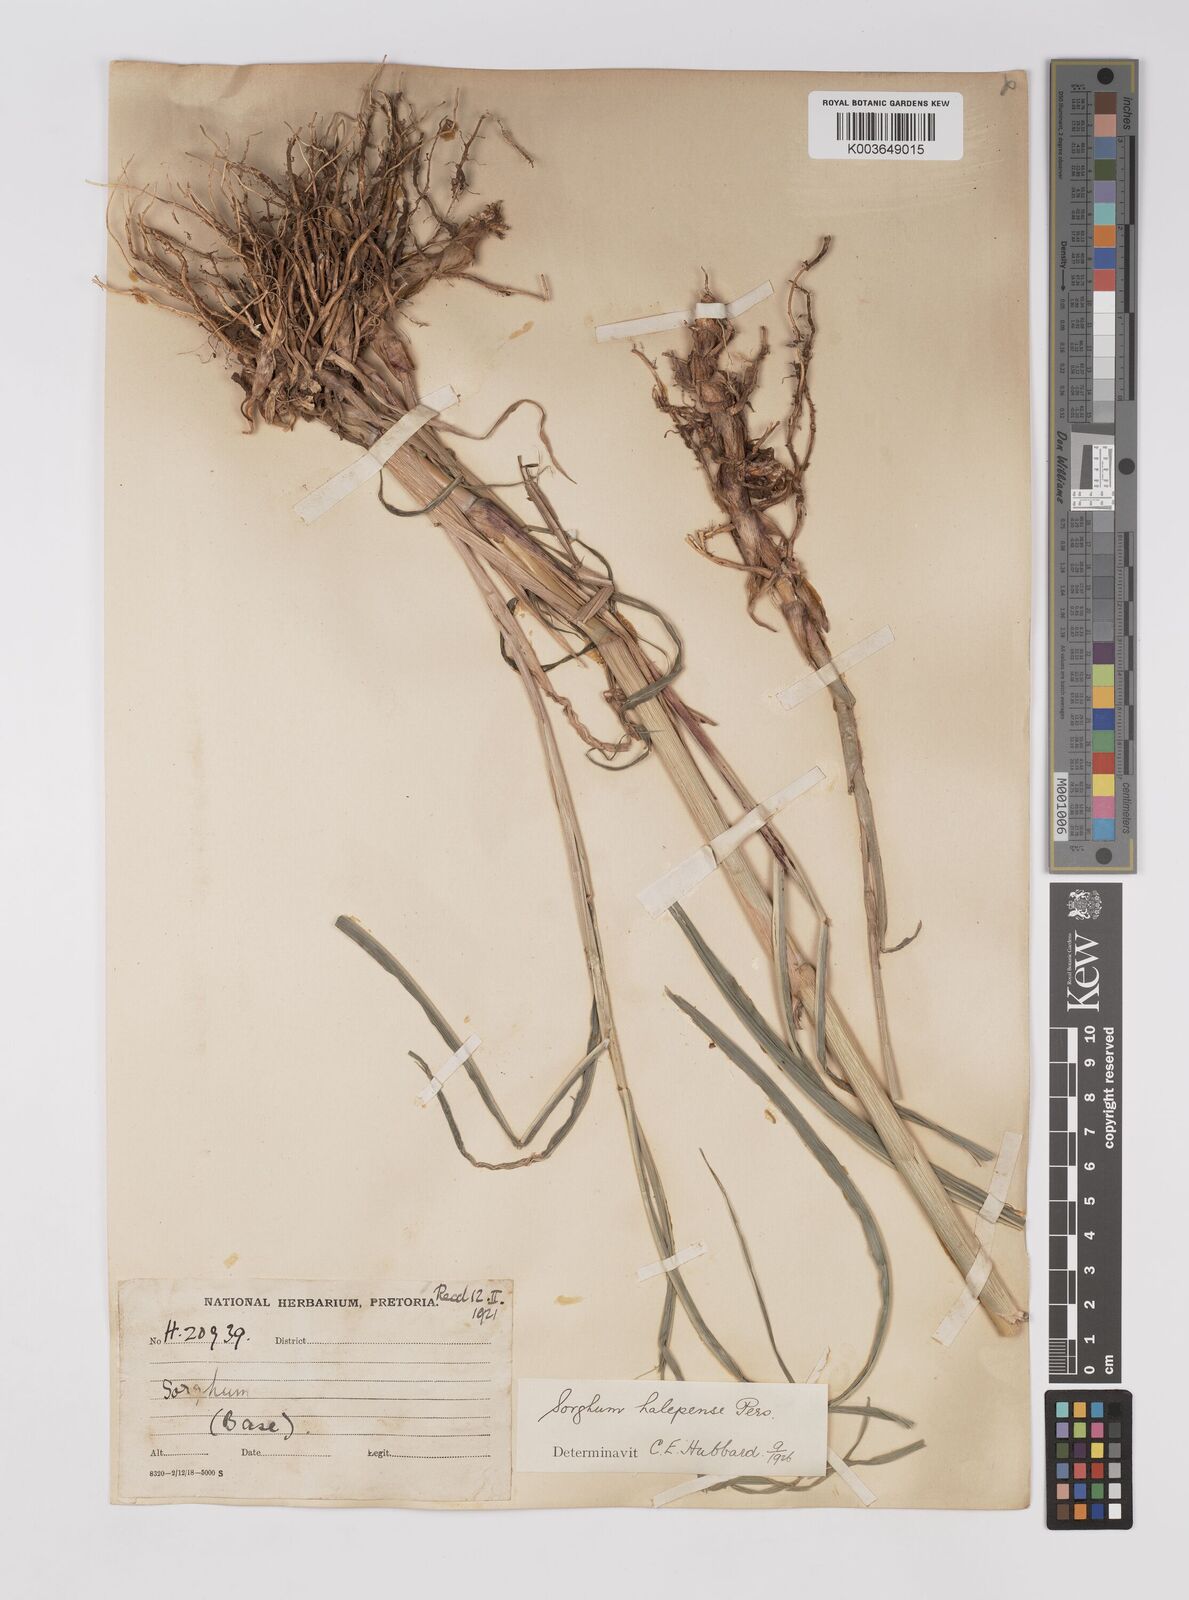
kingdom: Plantae
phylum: Tracheophyta
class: Liliopsida
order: Poales
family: Poaceae
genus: Sorghum
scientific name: Sorghum halepense
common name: Johnson-grass
